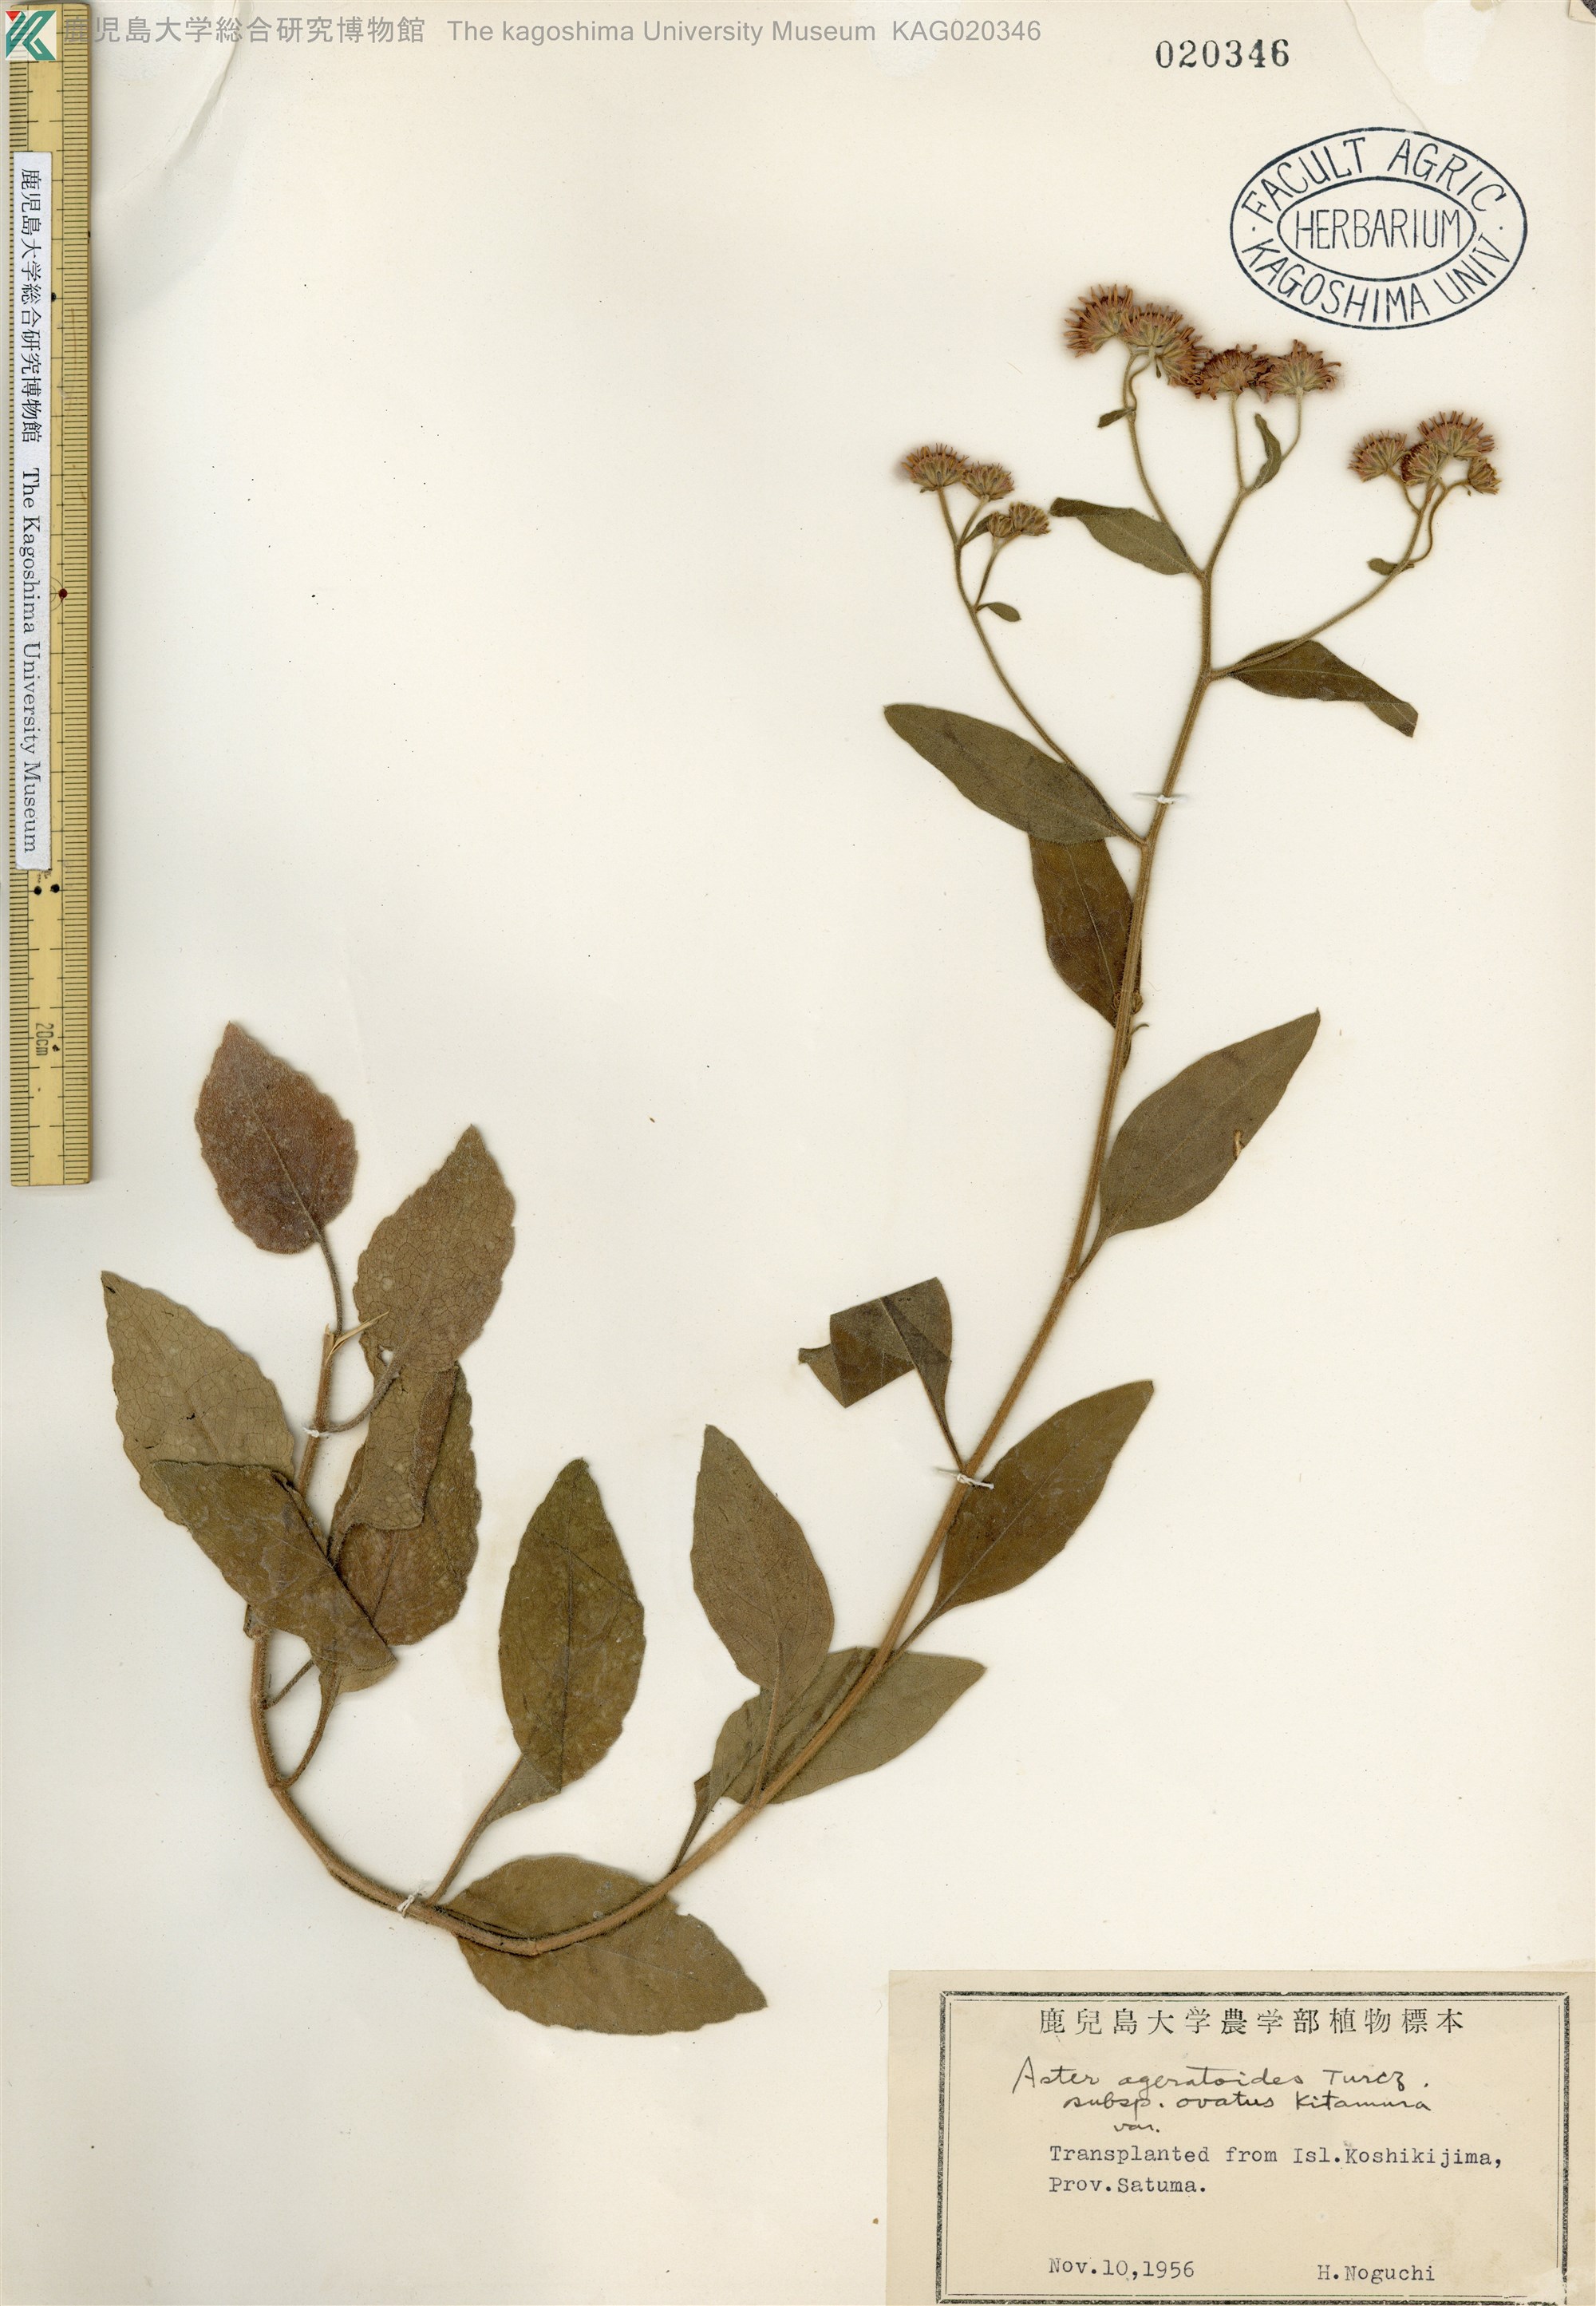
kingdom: Plantae
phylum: Tracheophyta
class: Magnoliopsida
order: Asterales
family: Asteraceae
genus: Aster
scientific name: Aster koshikiensis
